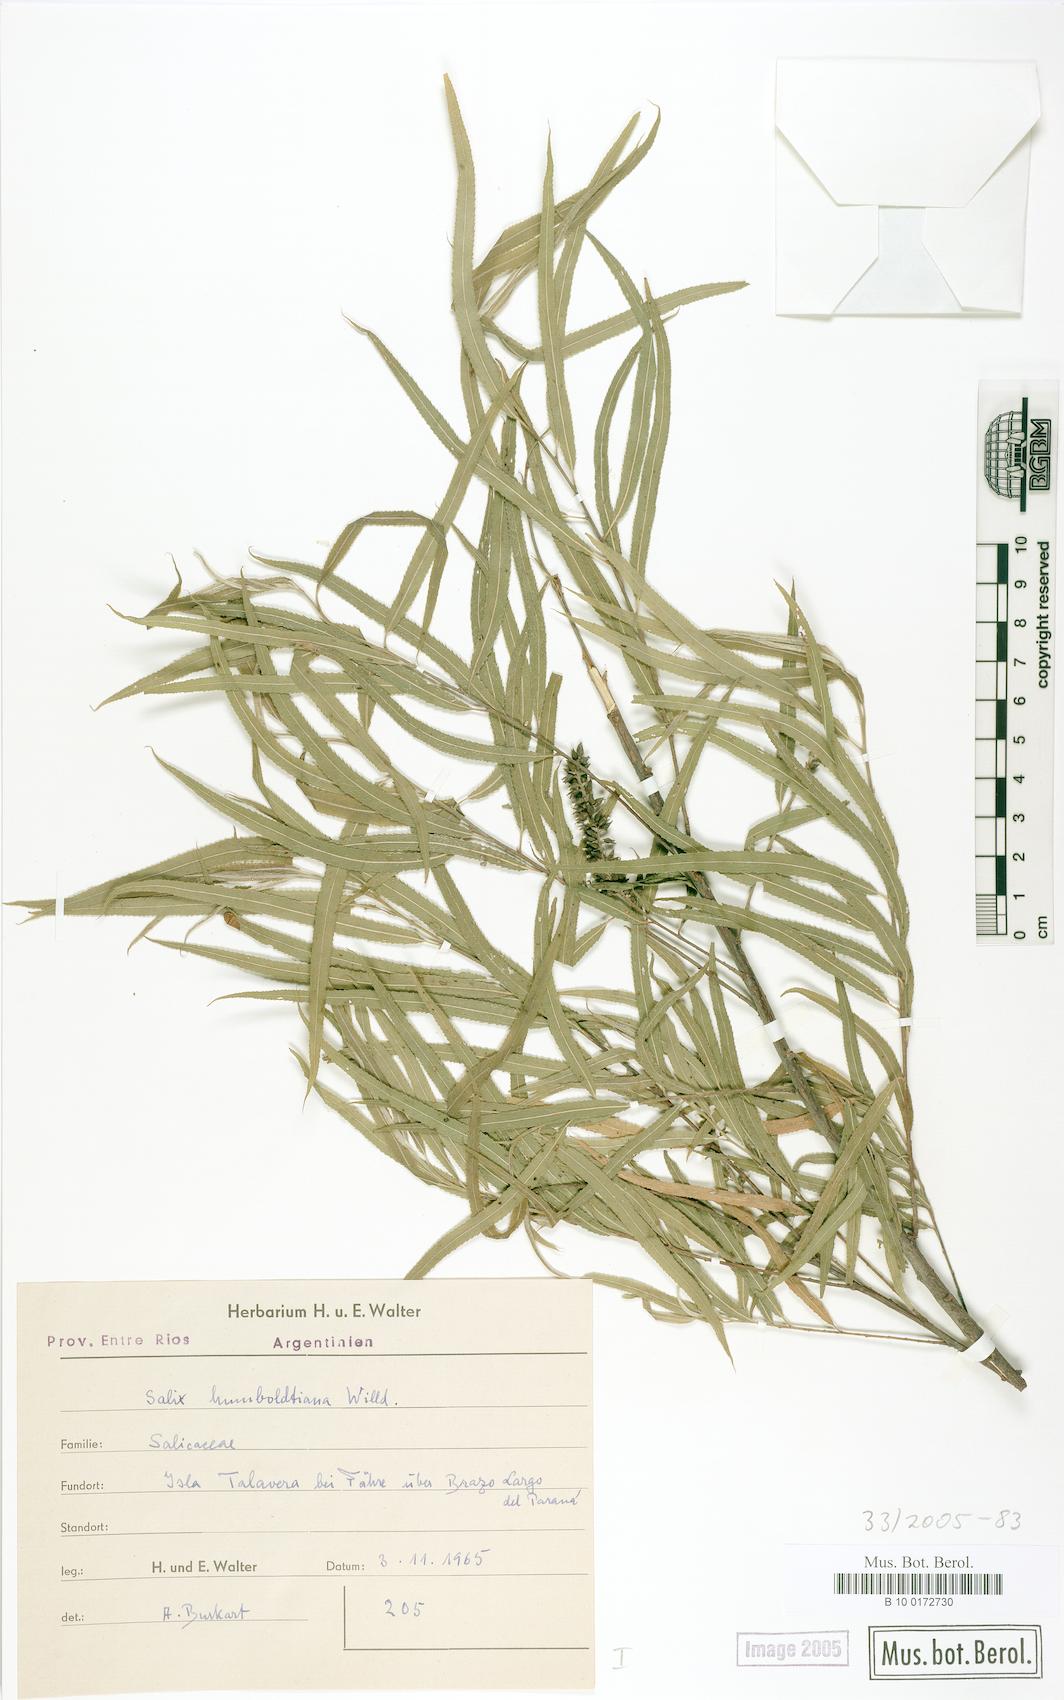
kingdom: Plantae
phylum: Tracheophyta
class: Magnoliopsida
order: Malpighiales
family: Salicaceae
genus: Salix
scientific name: Salix humboldtiana
